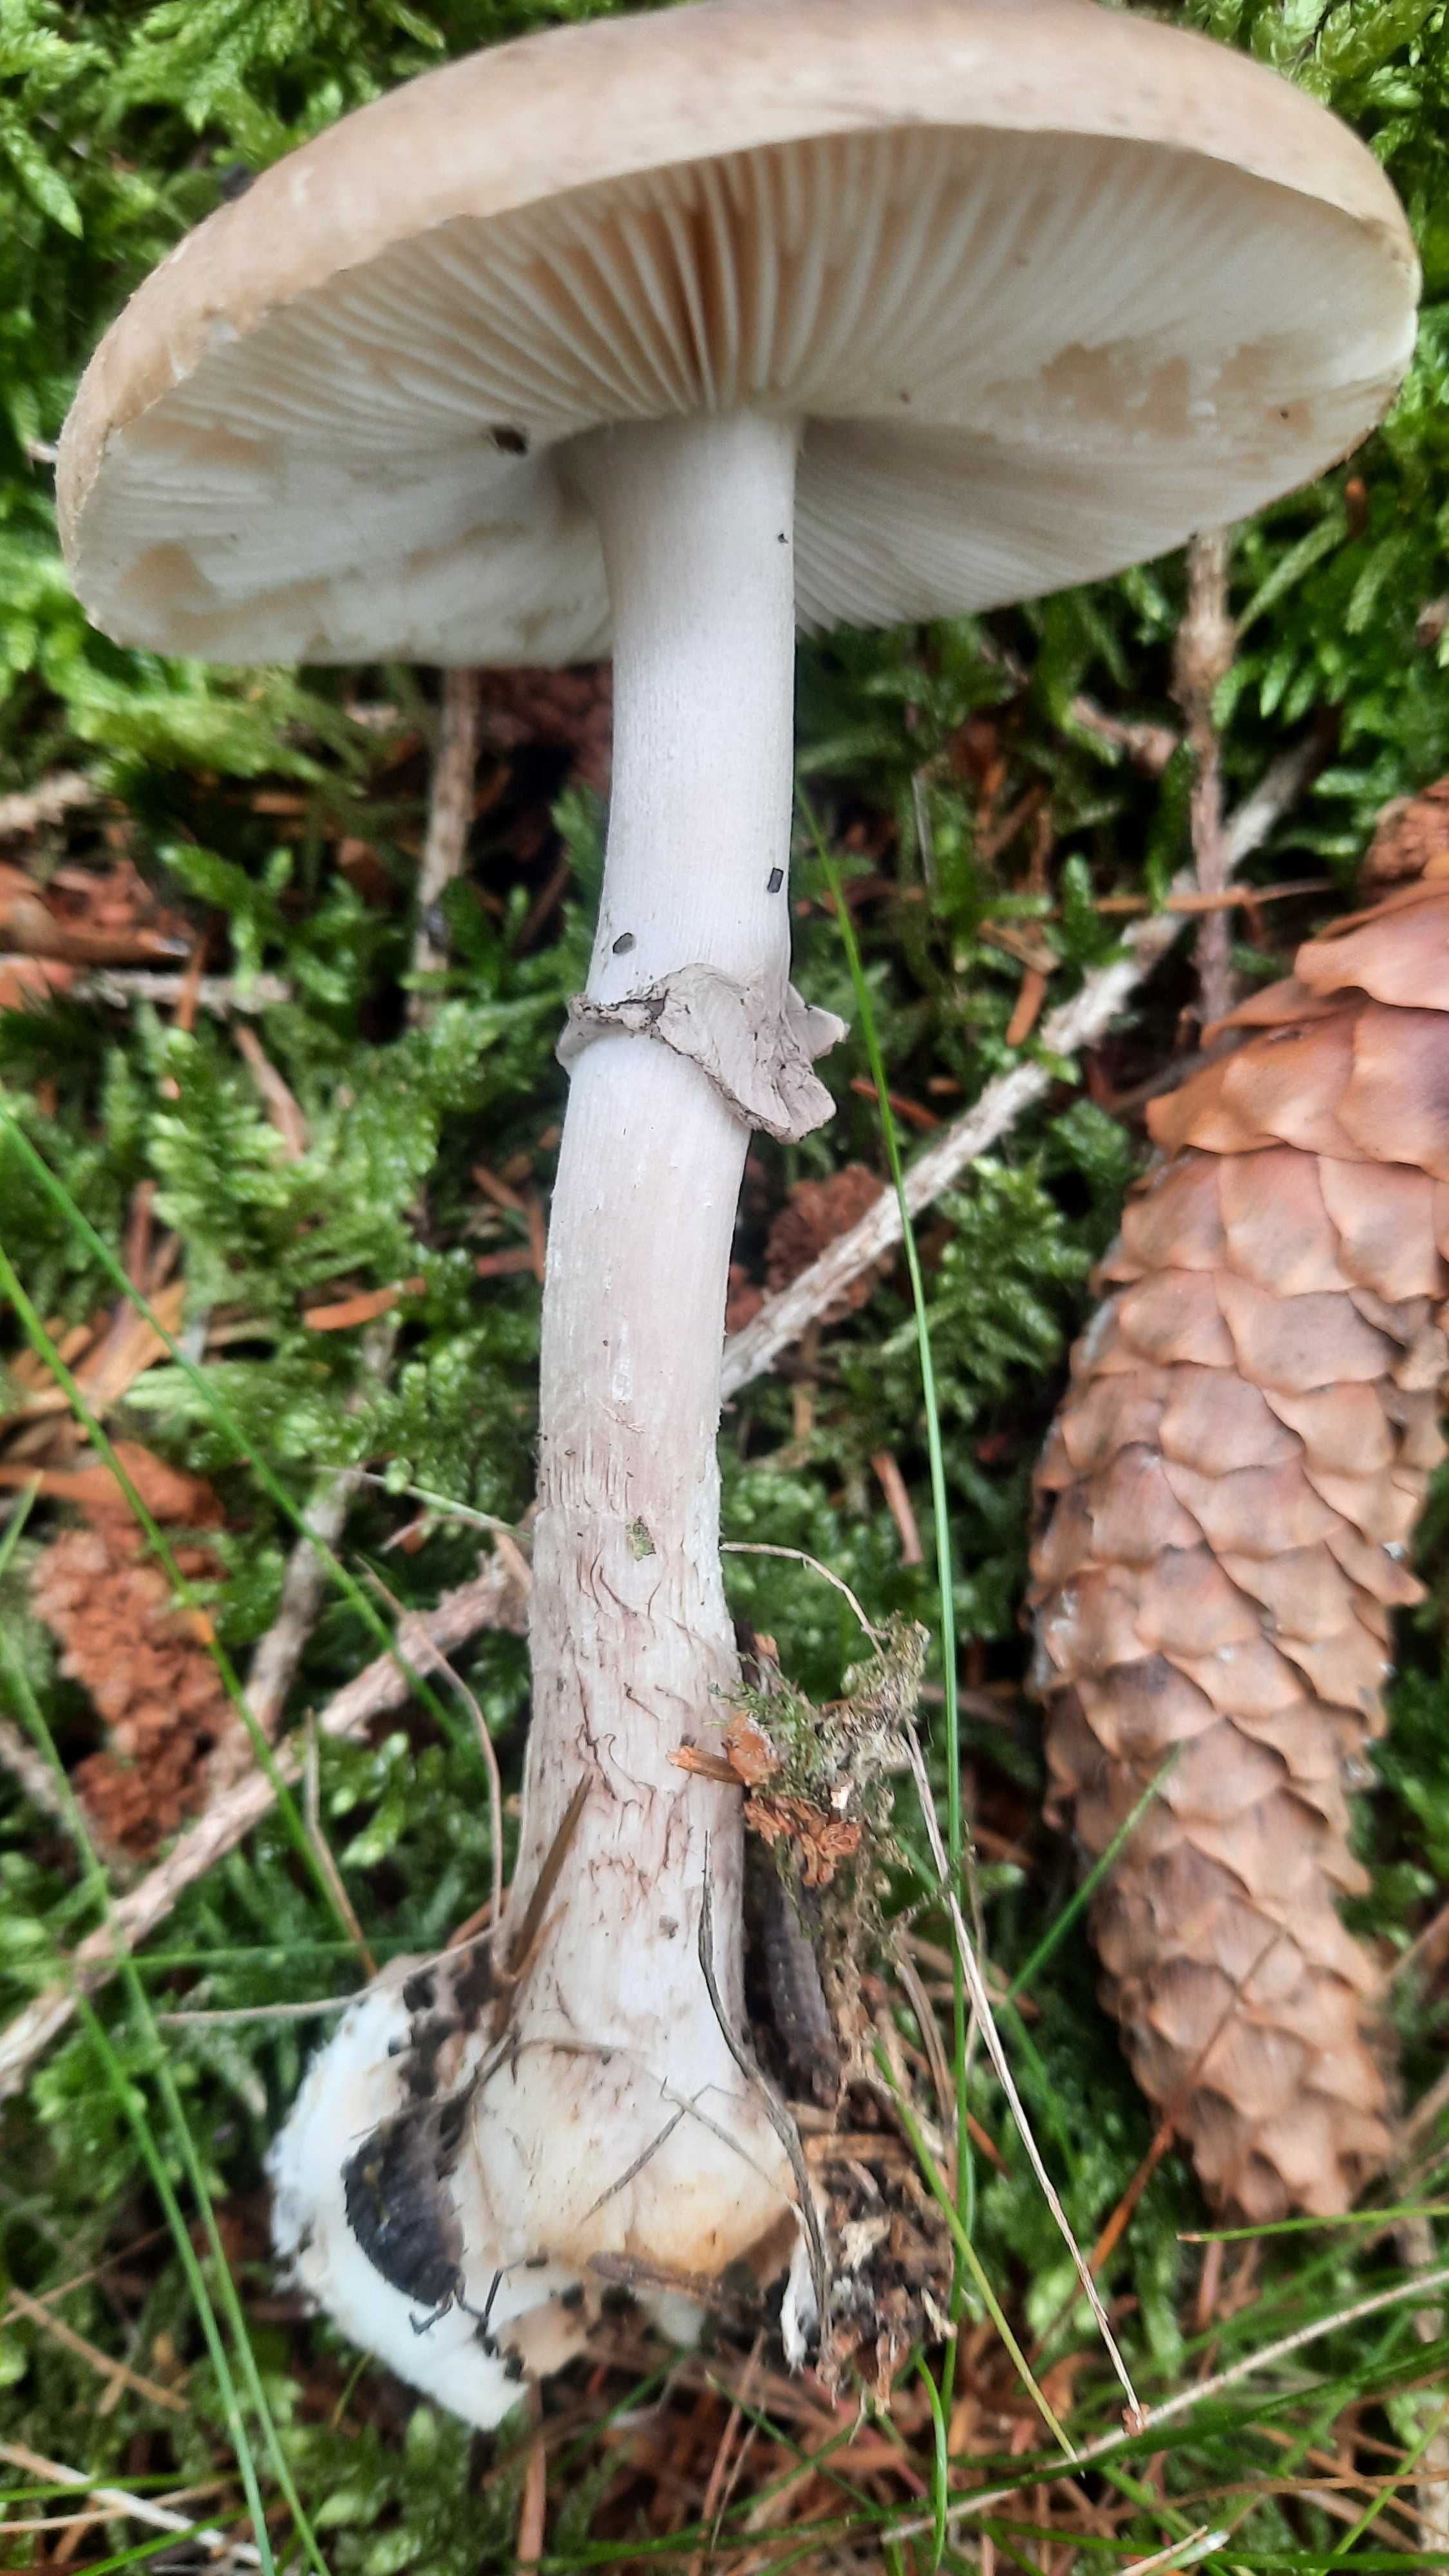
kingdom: Fungi
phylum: Basidiomycota
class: Agaricomycetes
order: Agaricales
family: Amanitaceae
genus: Amanita
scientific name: Amanita porphyria
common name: porfyr-fluesvamp
